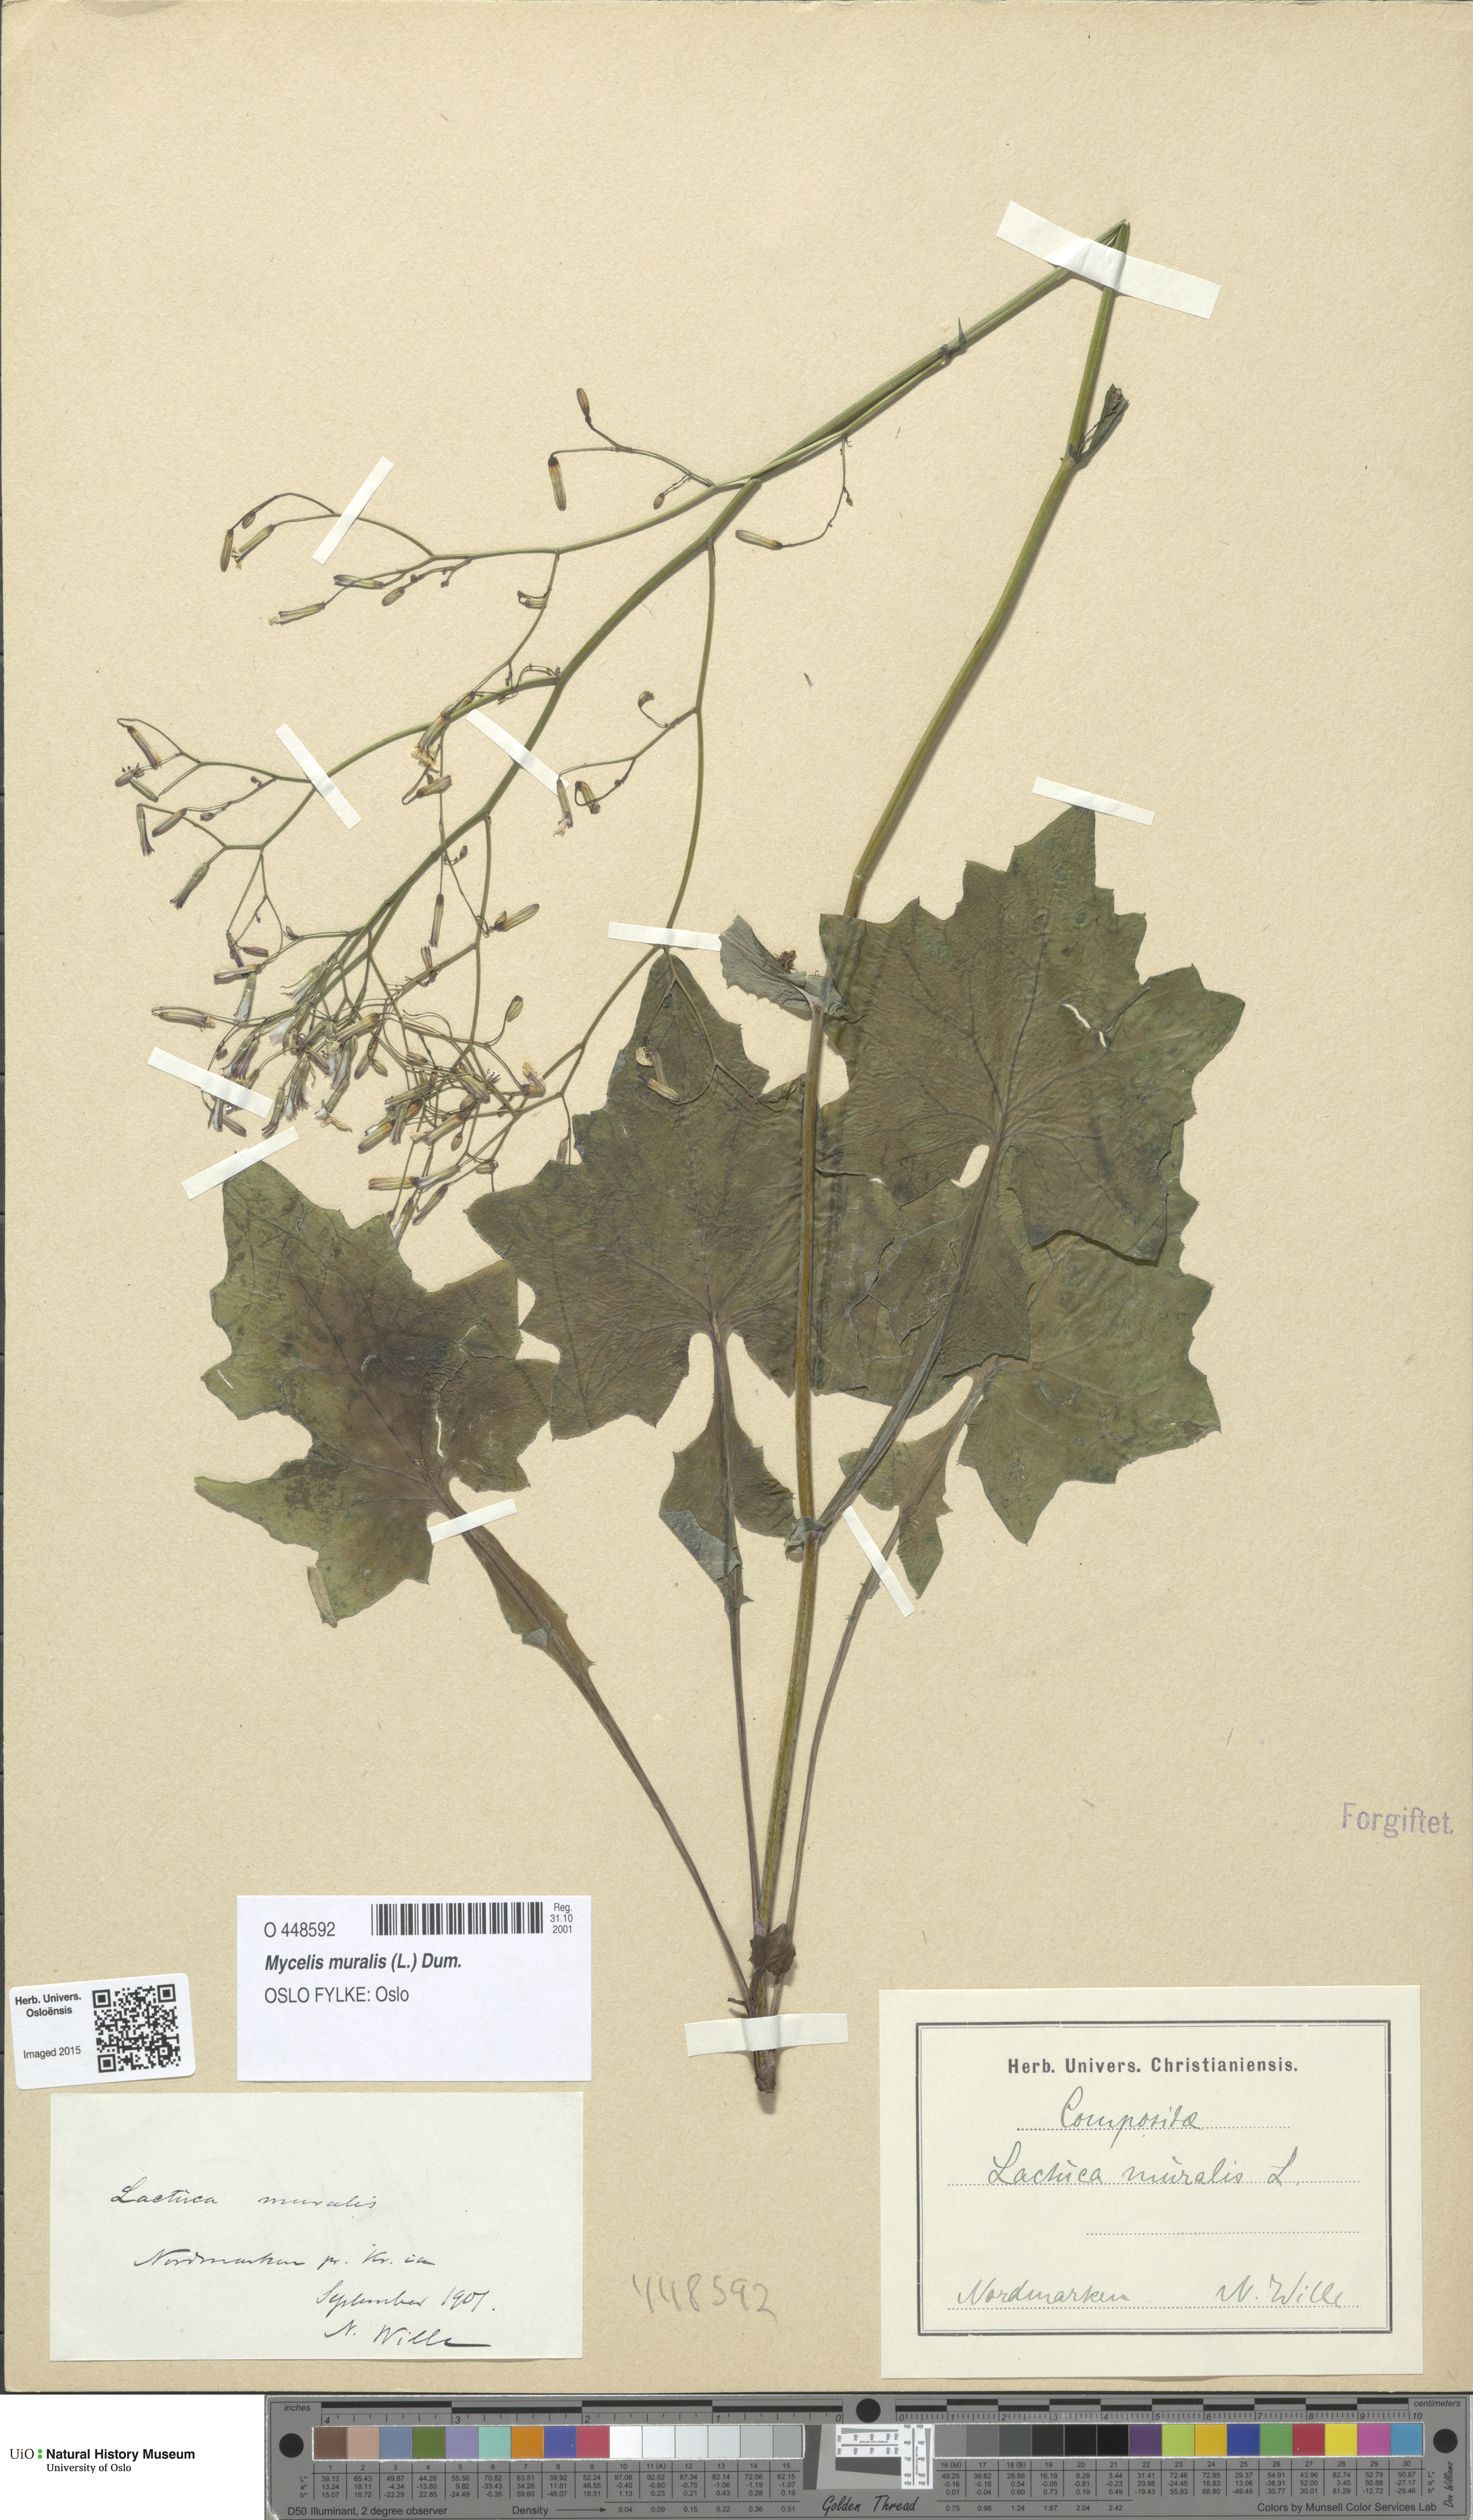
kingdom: Plantae
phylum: Tracheophyta
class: Magnoliopsida
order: Asterales
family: Asteraceae
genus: Mycelis
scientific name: Mycelis muralis
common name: Wall lettuce
